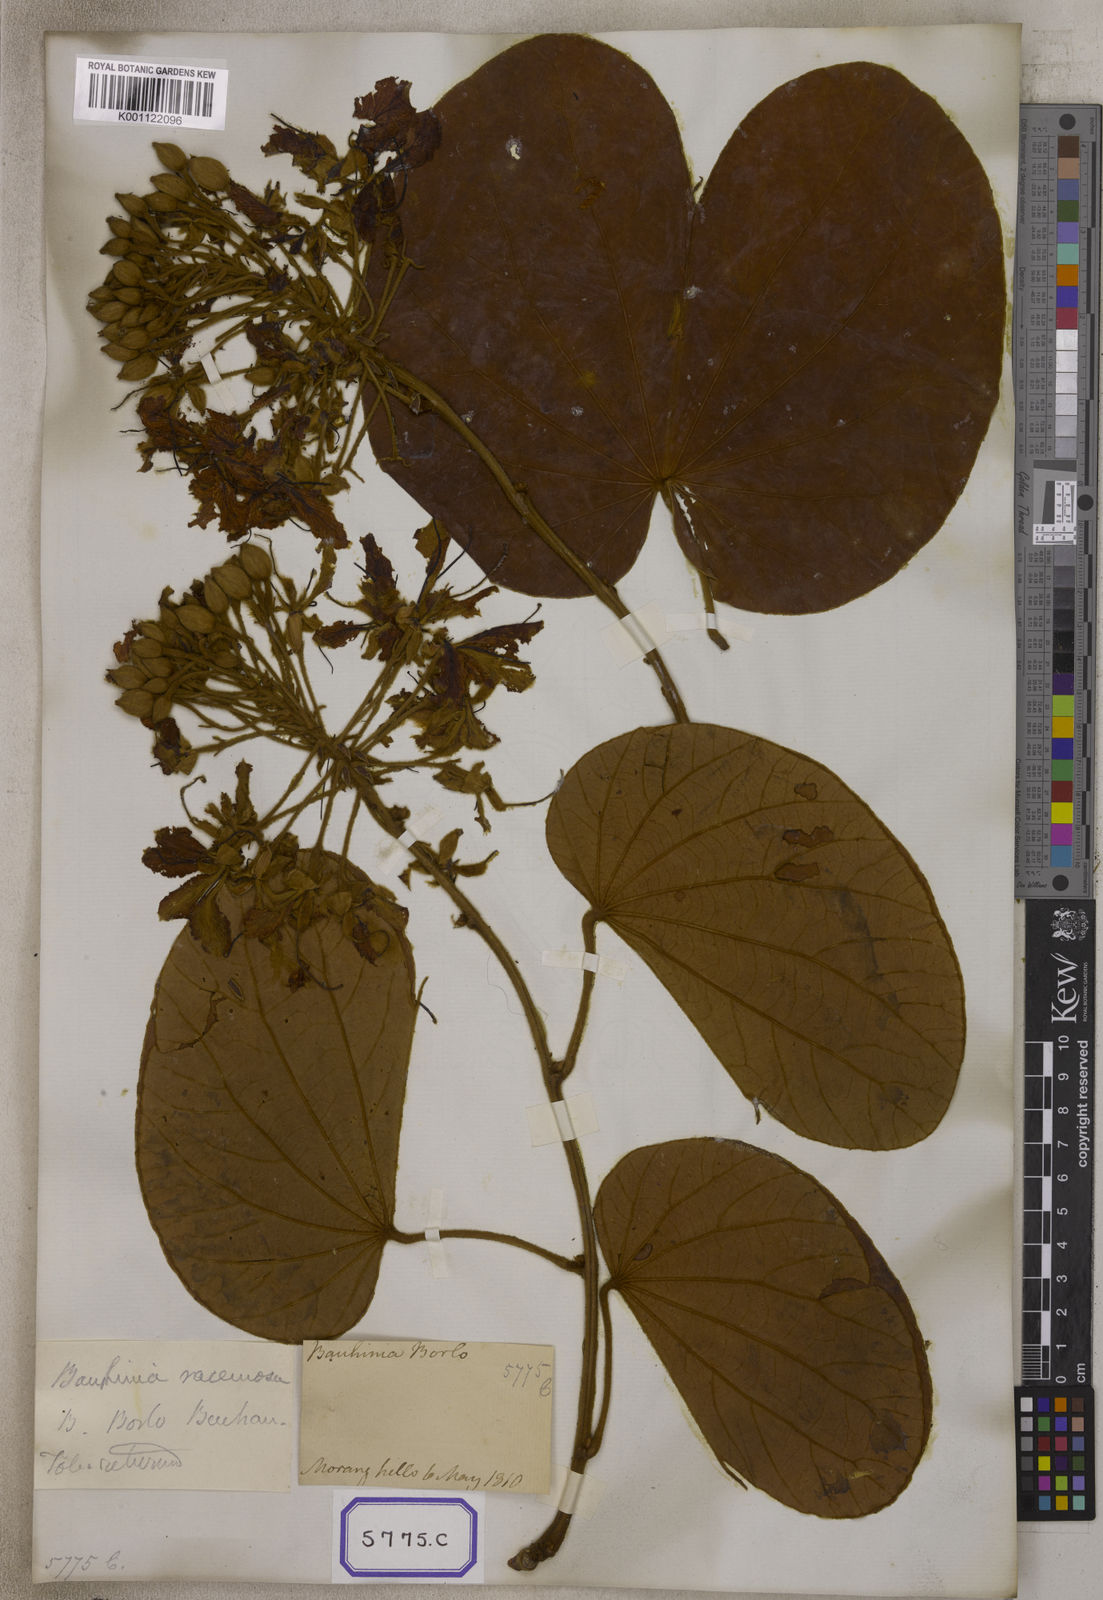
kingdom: Plantae
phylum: Tracheophyta
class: Magnoliopsida
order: Fabales
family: Fabaceae
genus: Bauhinia
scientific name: Bauhinia
